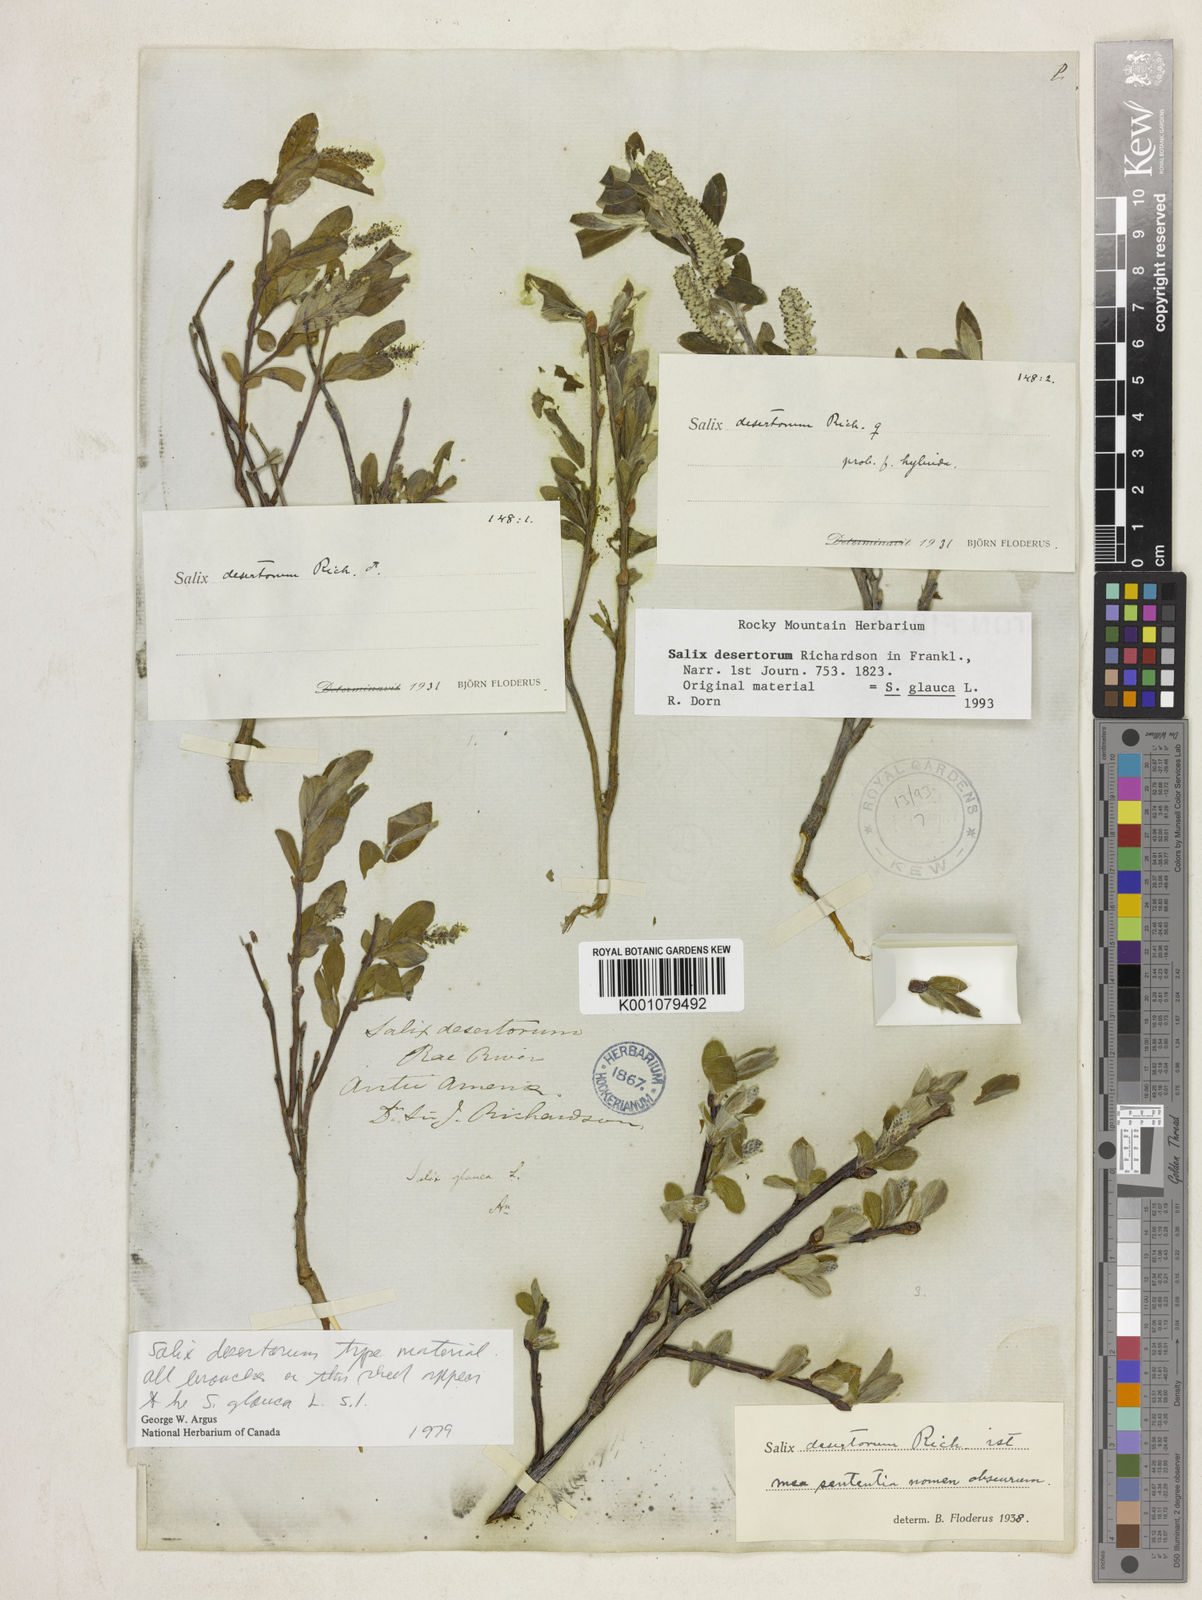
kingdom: Plantae
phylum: Tracheophyta
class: Magnoliopsida
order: Malpighiales
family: Salicaceae
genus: Salix
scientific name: Salix glauca
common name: Glaucous willow
